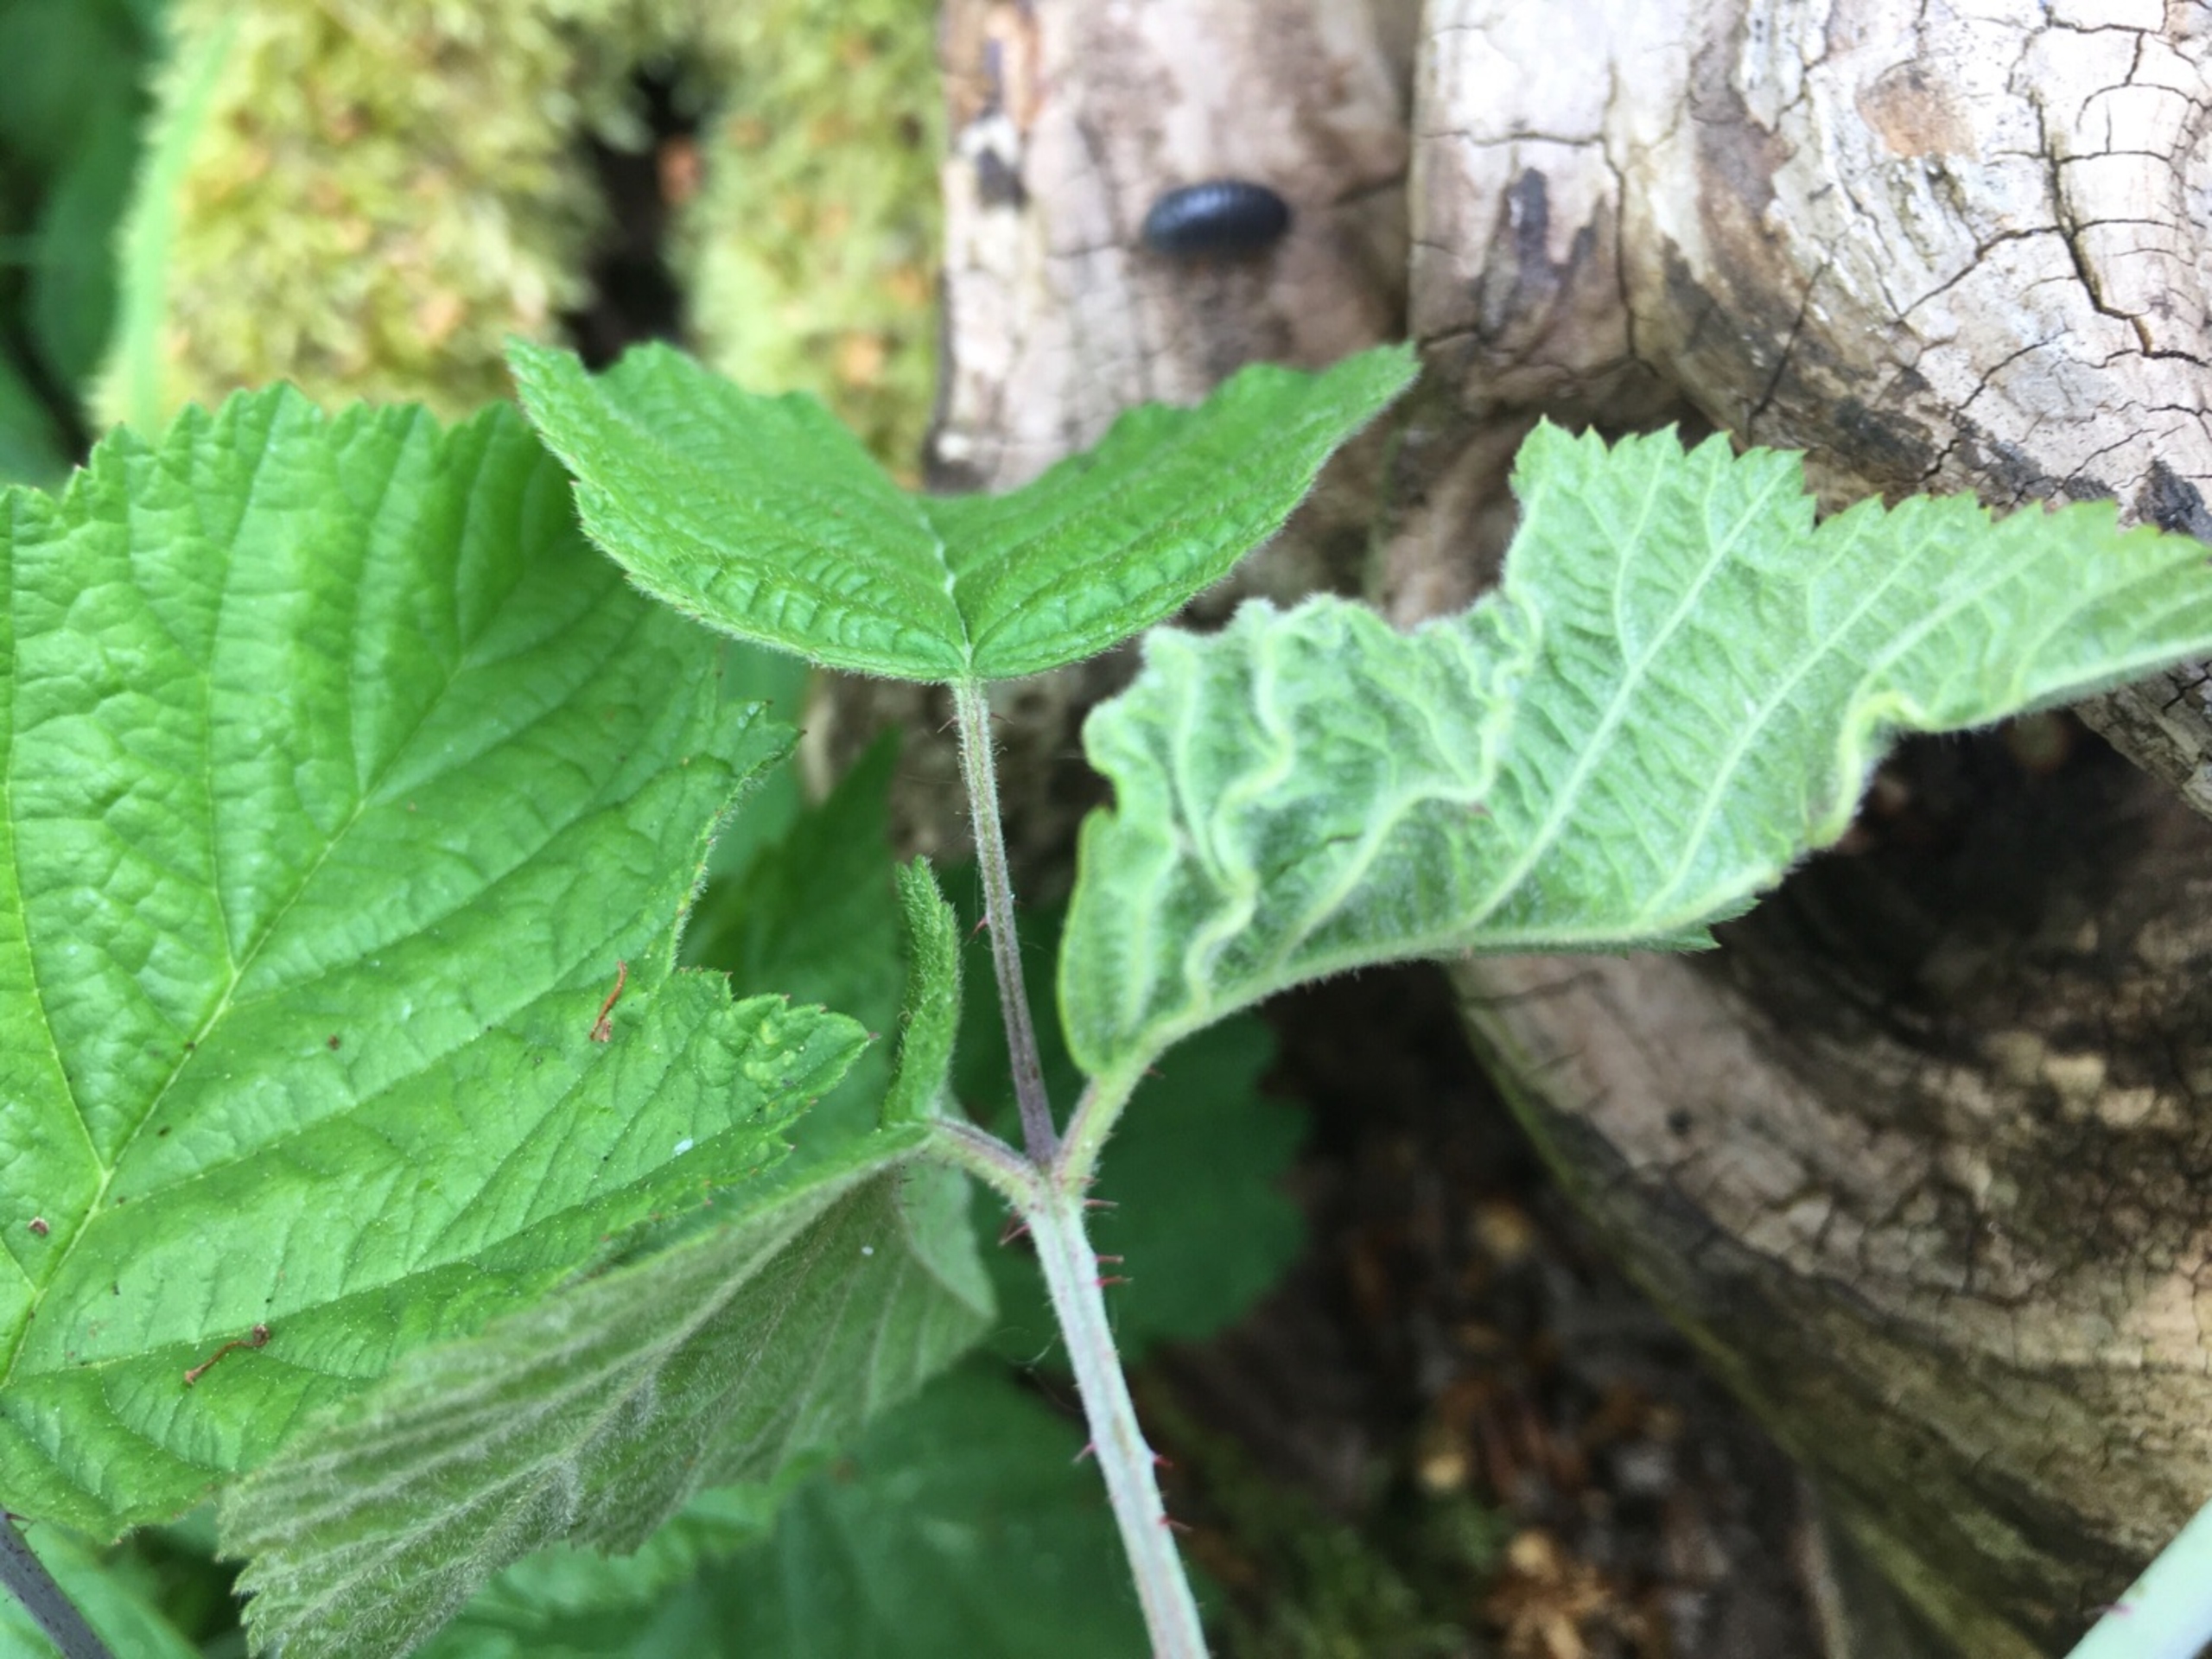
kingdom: Animalia
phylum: Arthropoda
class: Insecta
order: Diptera
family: Cecidomyiidae
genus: Dasineura
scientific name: Dasineura plicatrix
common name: Brombærbladgalmyg
